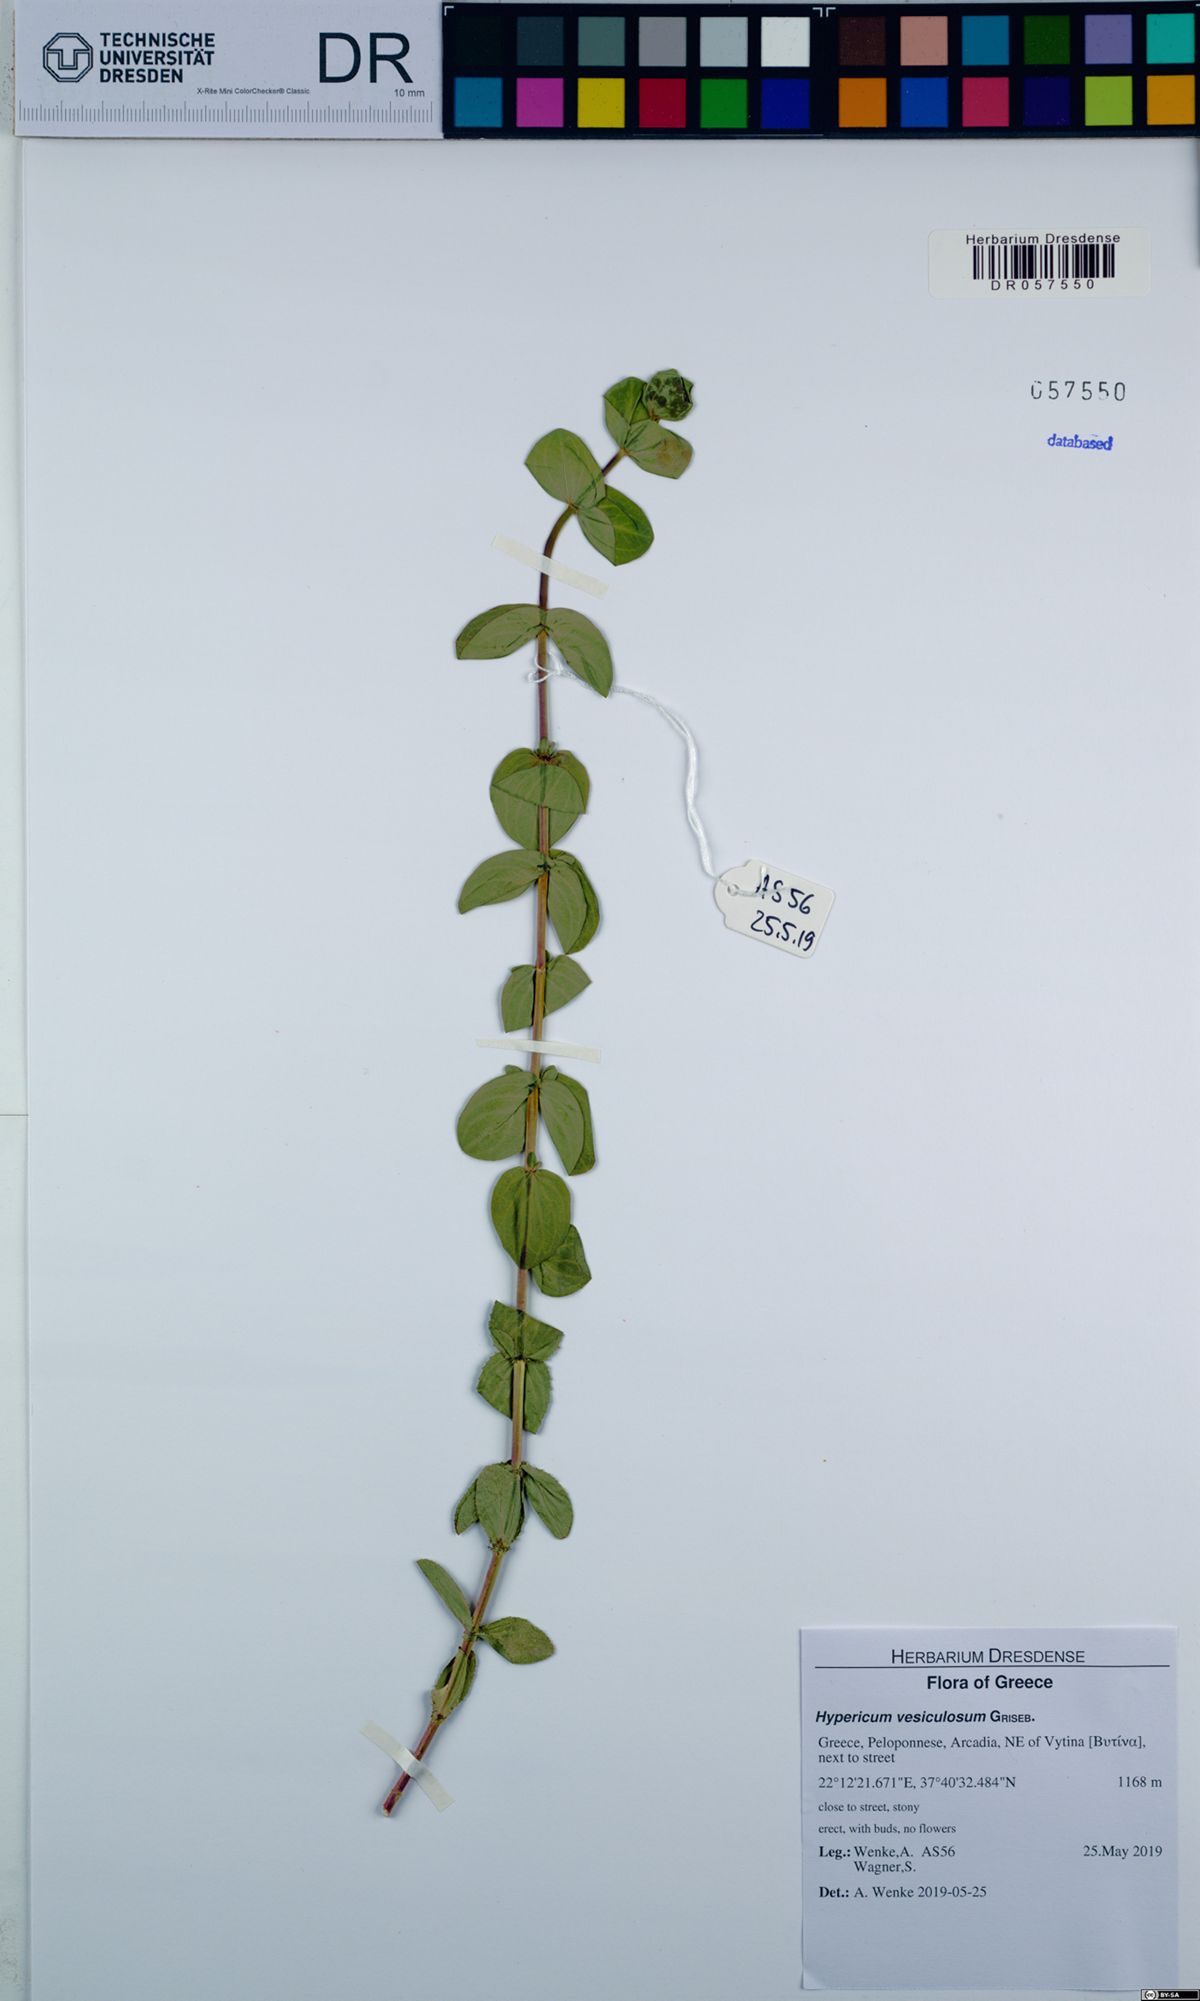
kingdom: Plantae
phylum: Tracheophyta
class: Magnoliopsida
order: Malpighiales
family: Hypericaceae
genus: Hypericum
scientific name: Hypericum vesiculosum
